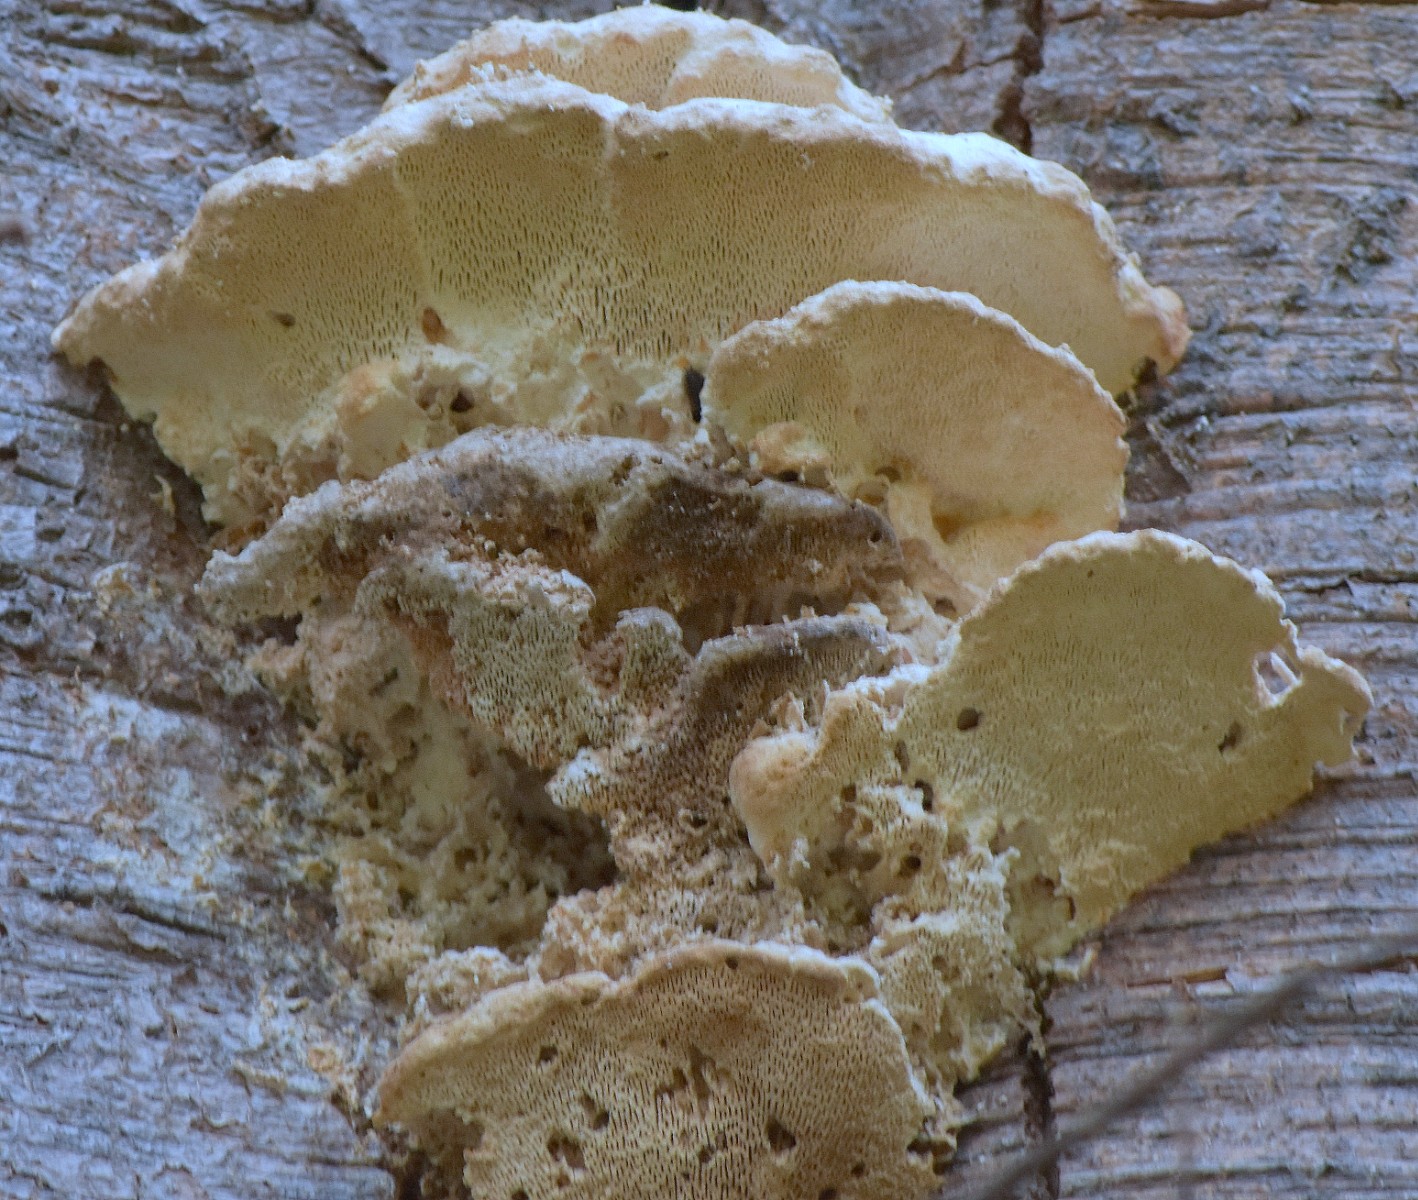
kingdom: Fungi
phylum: Basidiomycota
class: Agaricomycetes
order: Polyporales
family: Polyporaceae
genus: Trametes
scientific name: Trametes gibbosa
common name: puklet læderporesvamp
